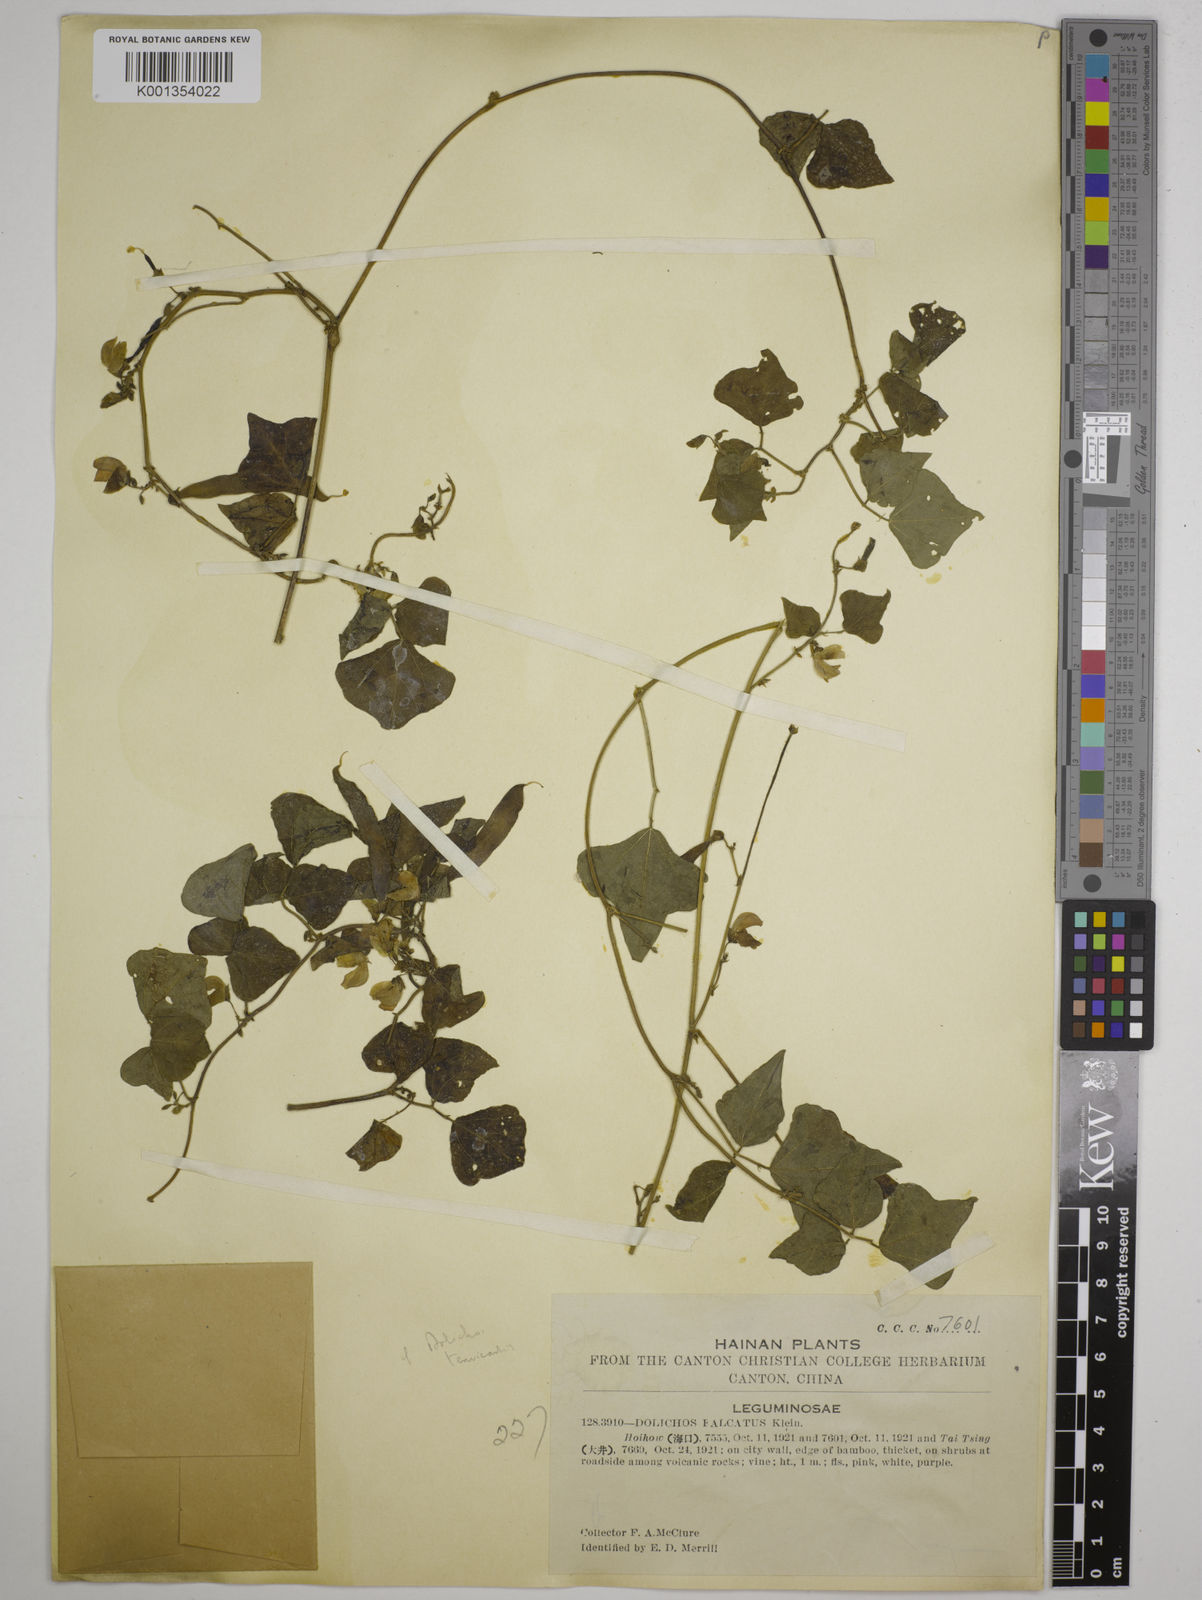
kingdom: Plantae
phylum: Tracheophyta
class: Magnoliopsida
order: Fabales
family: Fabaceae
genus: Dolichos
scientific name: Dolichos trilobus
